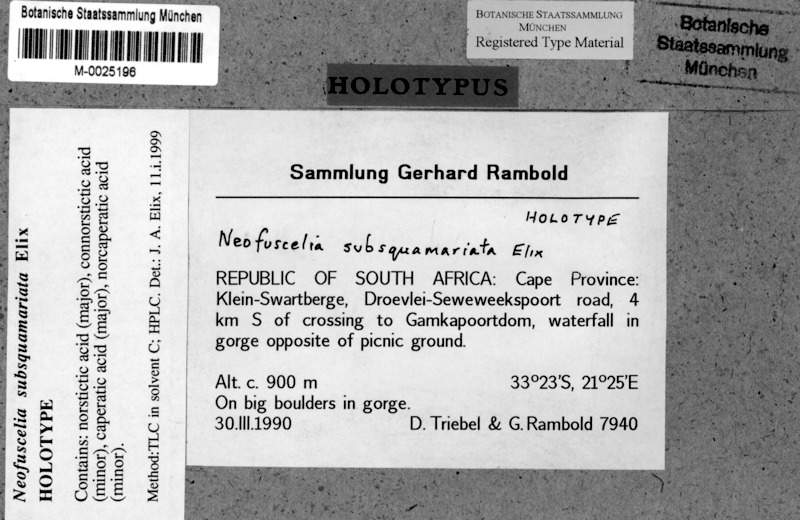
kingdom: Fungi
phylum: Ascomycota
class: Lecanoromycetes
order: Lecanorales
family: Parmeliaceae
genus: Xanthoparmelia
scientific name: Xanthoparmelia subsquamariata
